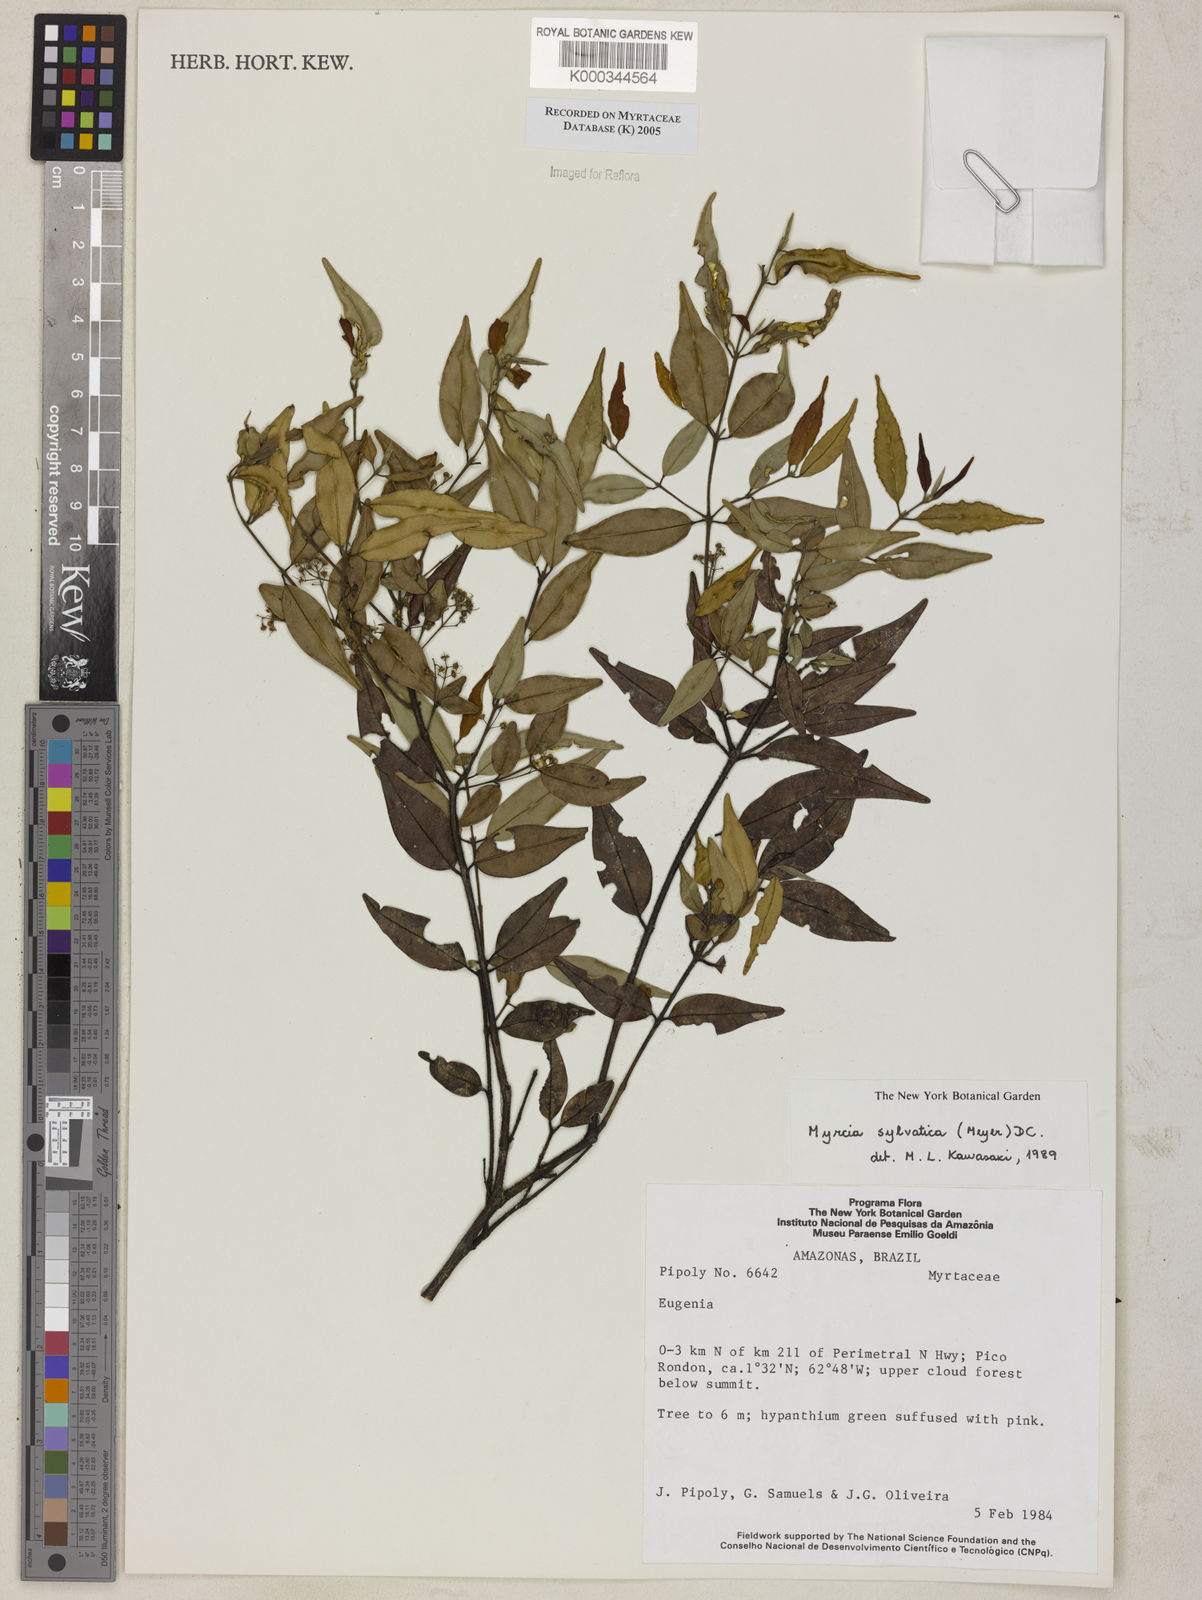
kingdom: Plantae
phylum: Tracheophyta
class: Magnoliopsida
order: Myrtales
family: Myrtaceae
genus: Myrcia
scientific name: Myrcia sylvatica
